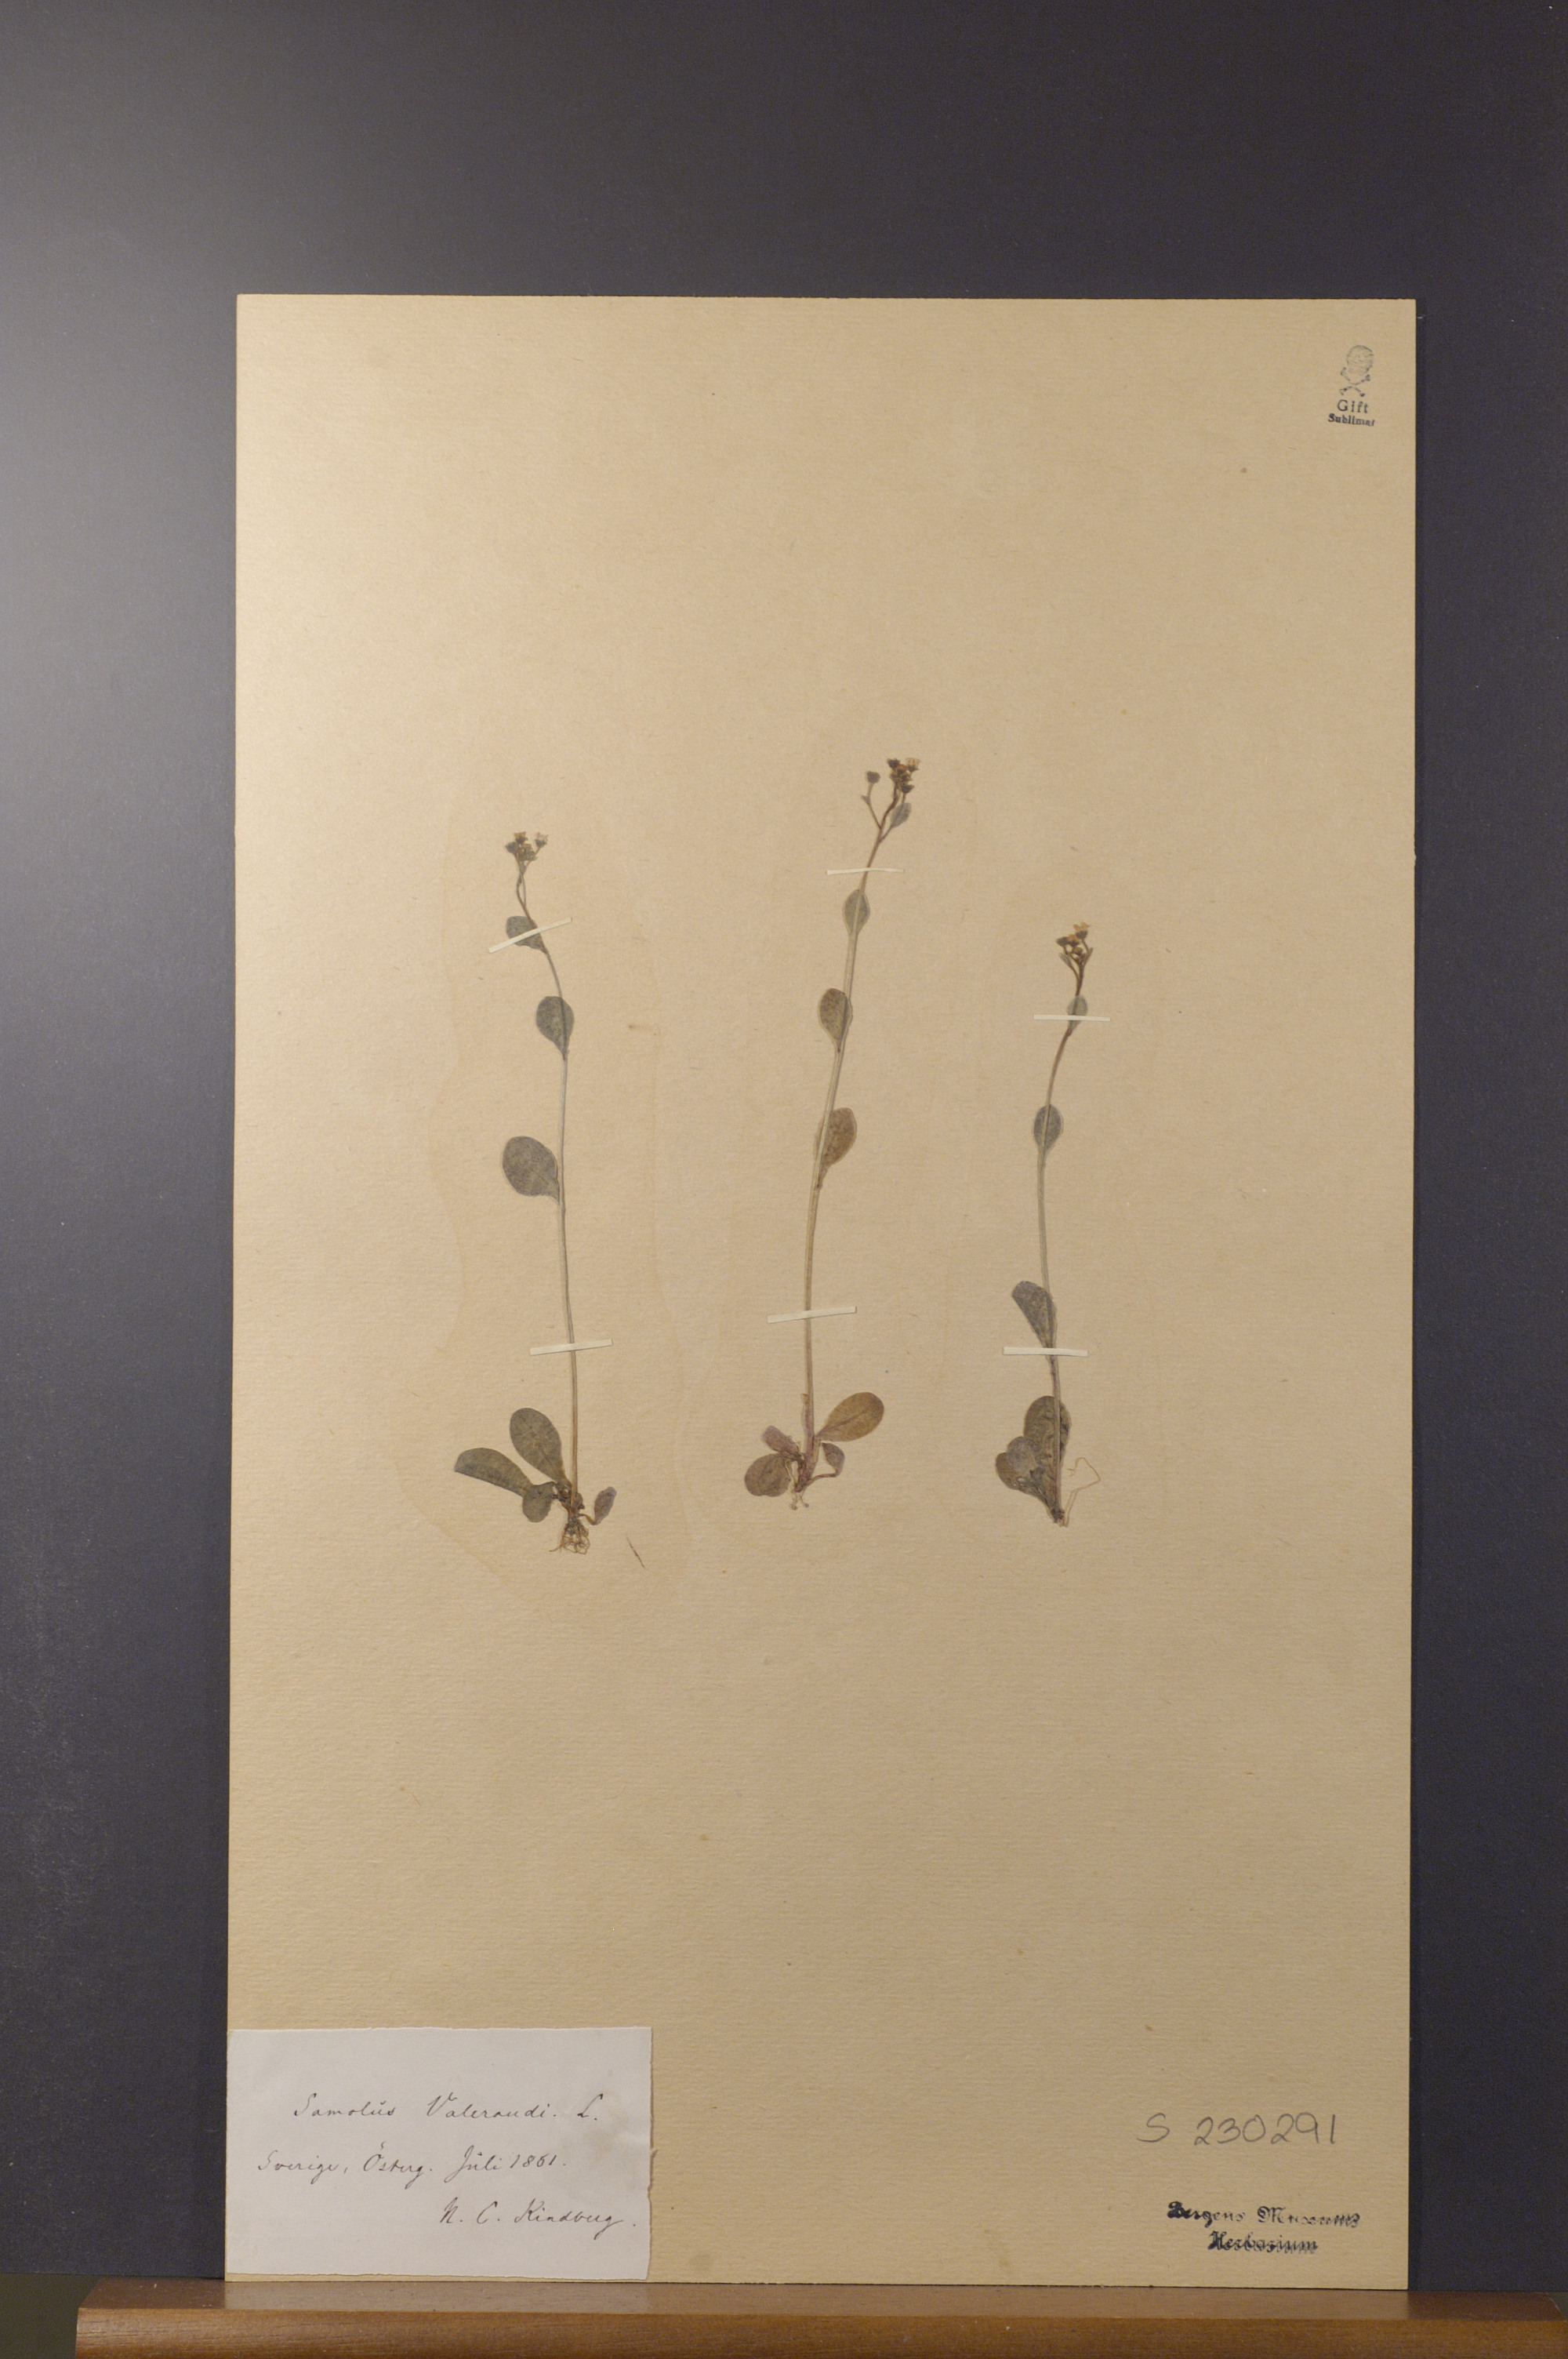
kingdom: Plantae
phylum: Tracheophyta
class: Magnoliopsida
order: Ericales
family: Primulaceae
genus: Samolus
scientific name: Samolus valerandi
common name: Brookweed
